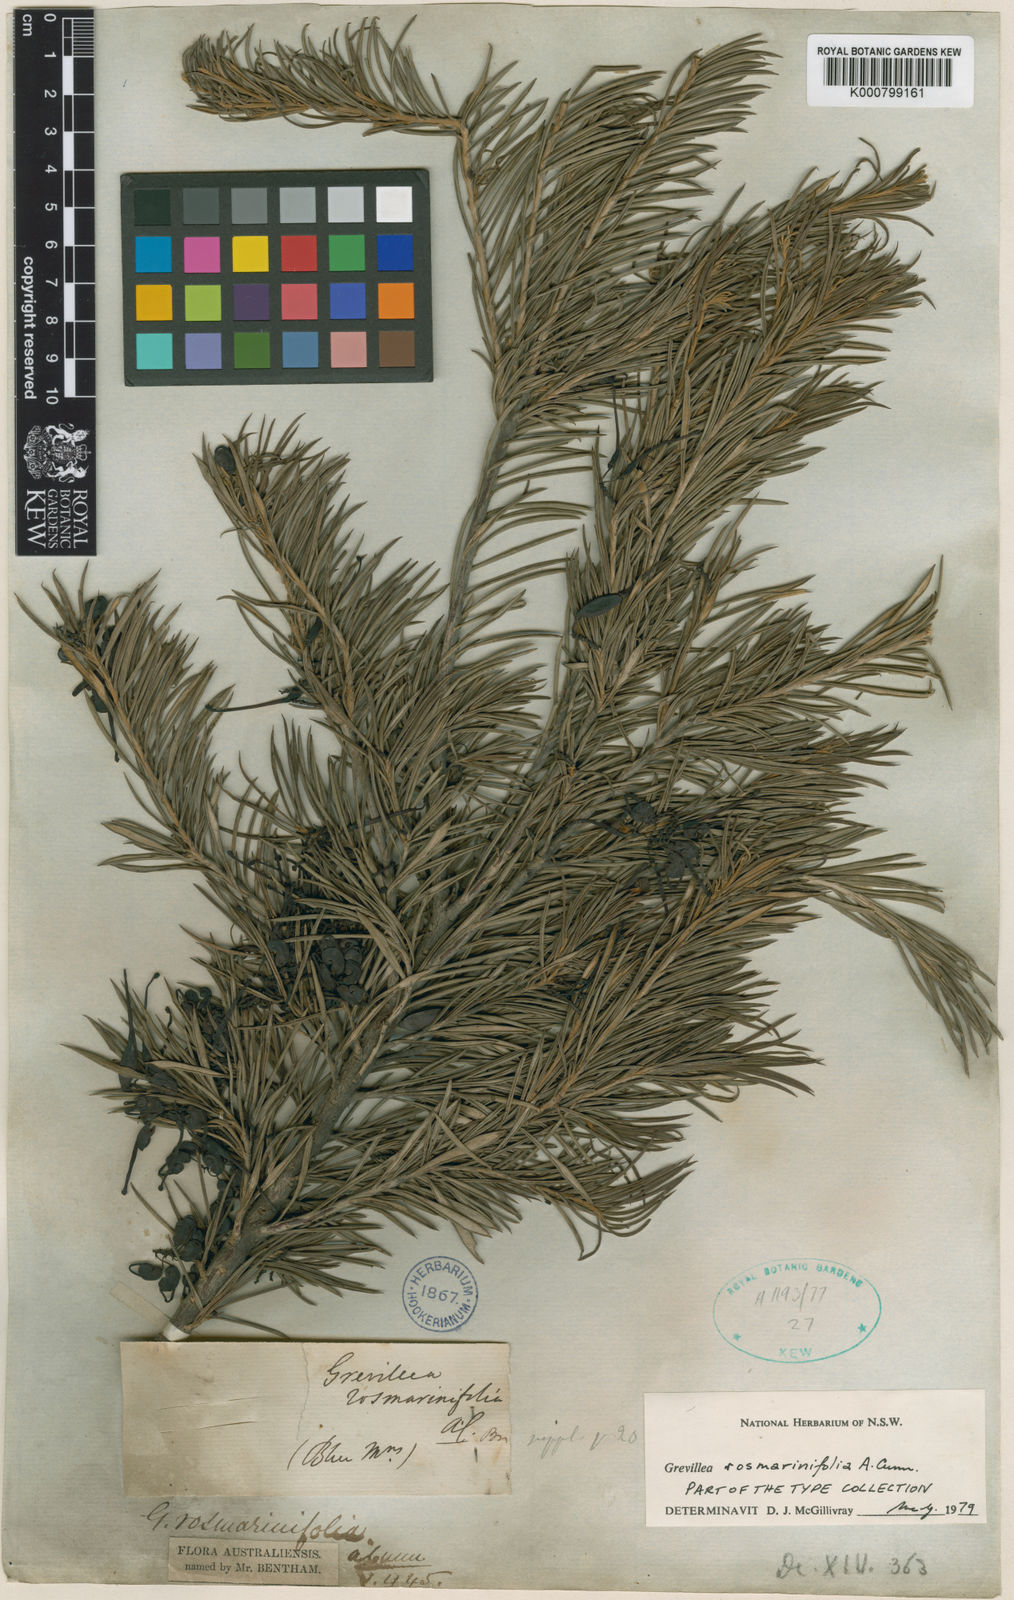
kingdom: Plantae
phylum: Tracheophyta
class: Magnoliopsida
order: Proteales
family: Proteaceae
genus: Grevillea
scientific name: Grevillea rosmarinifolia
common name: Rosemary grevillea
